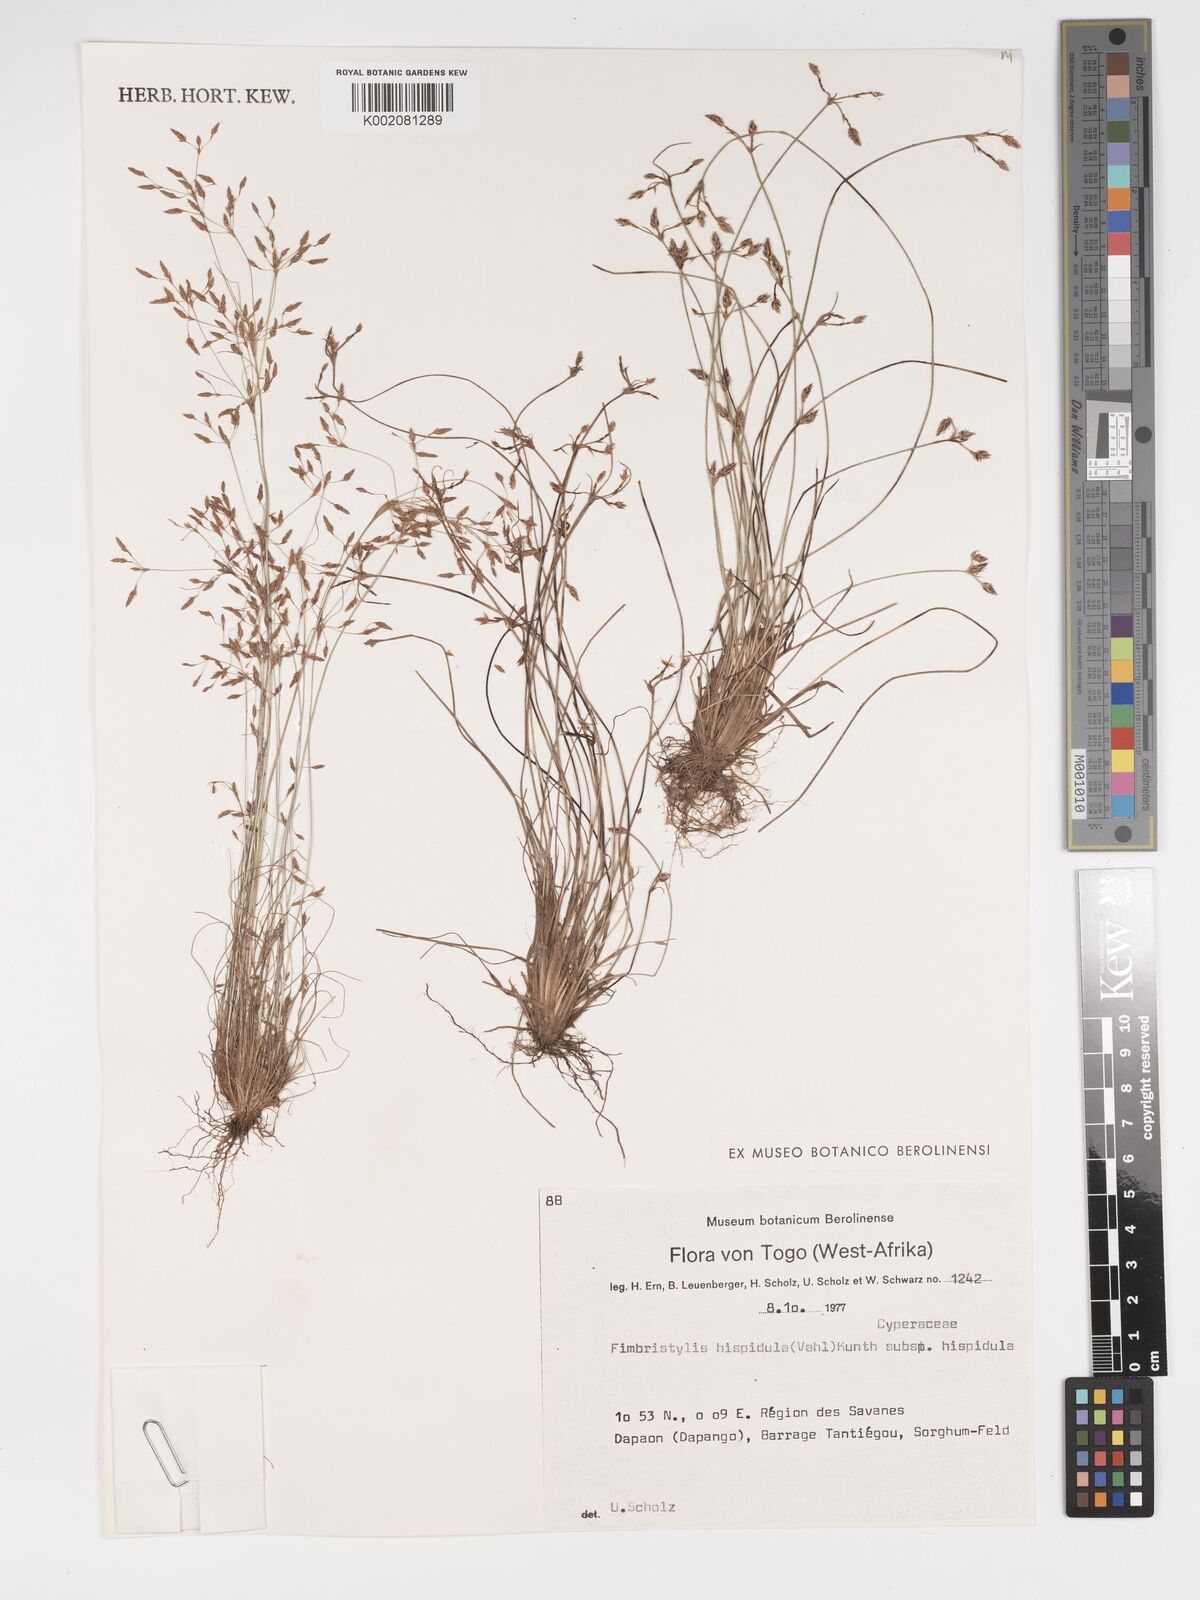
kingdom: Plantae
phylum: Tracheophyta
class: Liliopsida
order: Poales
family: Cyperaceae
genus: Bulbostylis
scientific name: Bulbostylis hispidula
